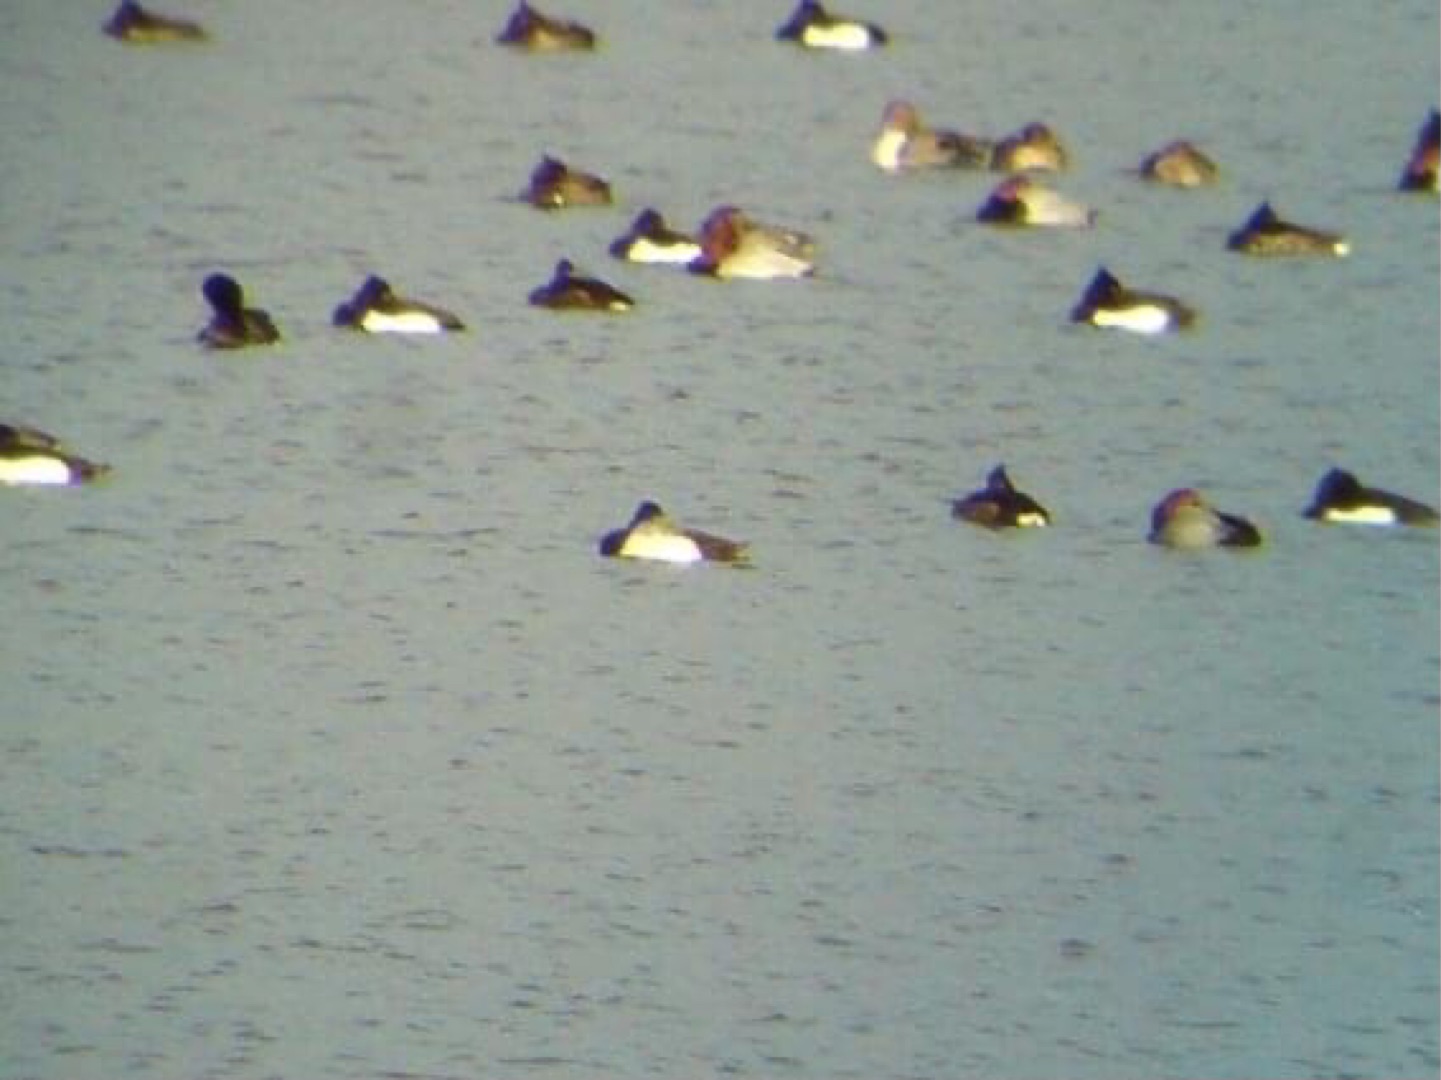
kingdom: Animalia
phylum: Chordata
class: Aves
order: Anseriformes
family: Anatidae
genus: Aythya
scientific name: Aythya affinis
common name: Lille bjergand
